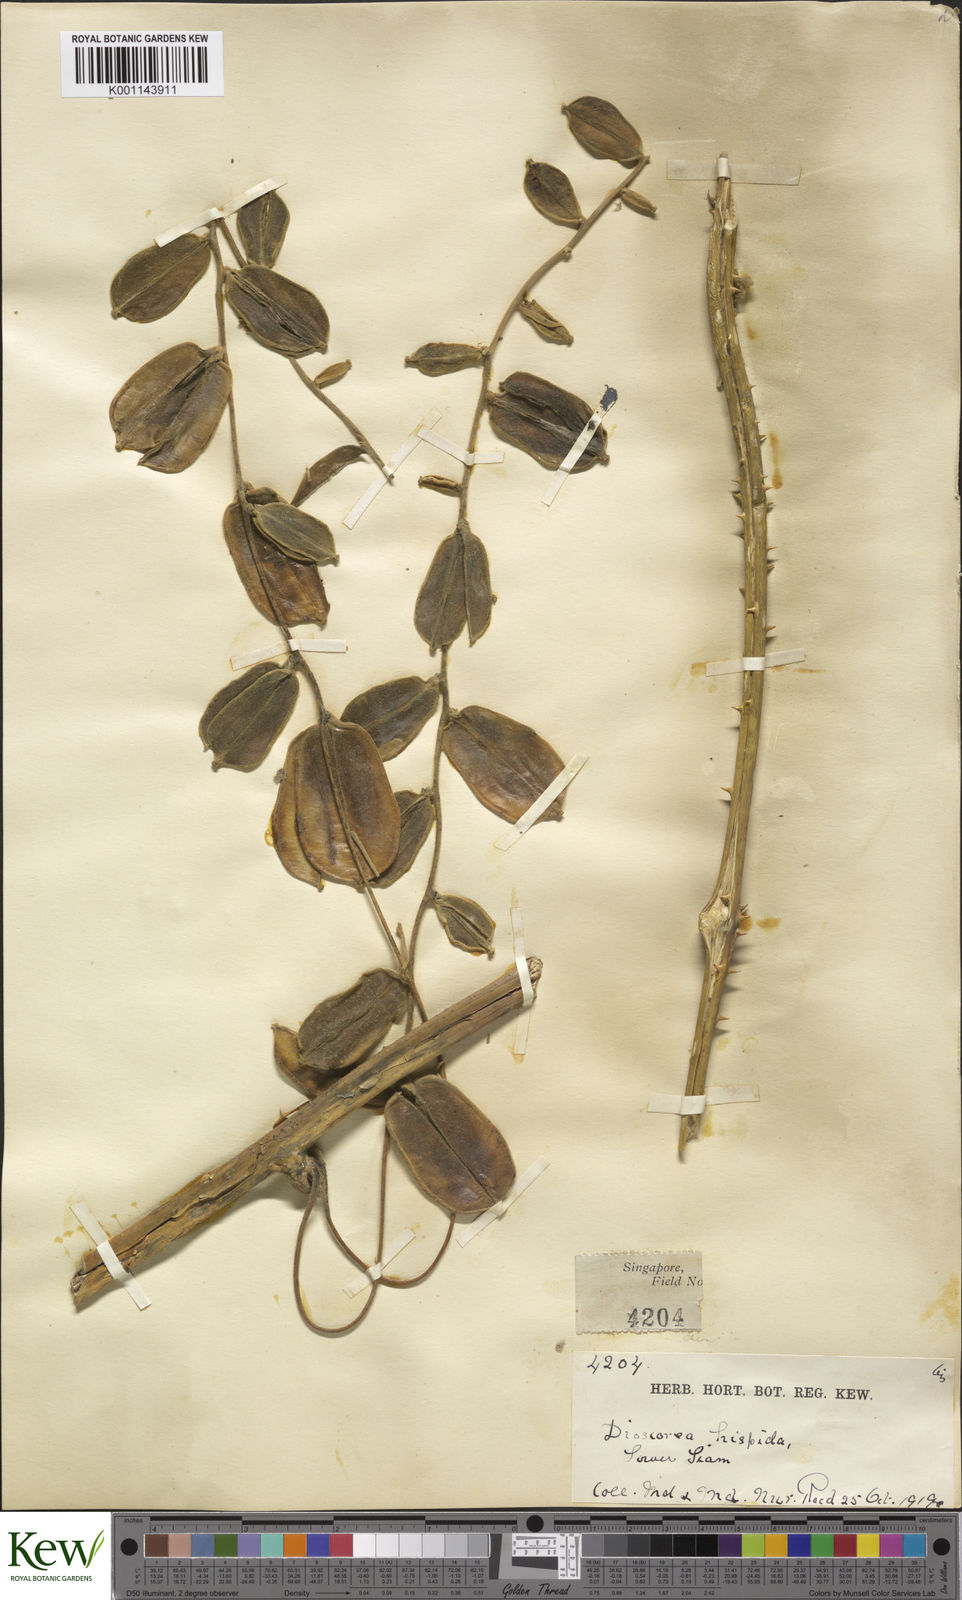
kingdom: Plantae
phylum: Tracheophyta
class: Liliopsida
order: Dioscoreales
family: Dioscoreaceae
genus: Dioscorea
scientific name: Dioscorea hispida
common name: Asiatic bitter yam
